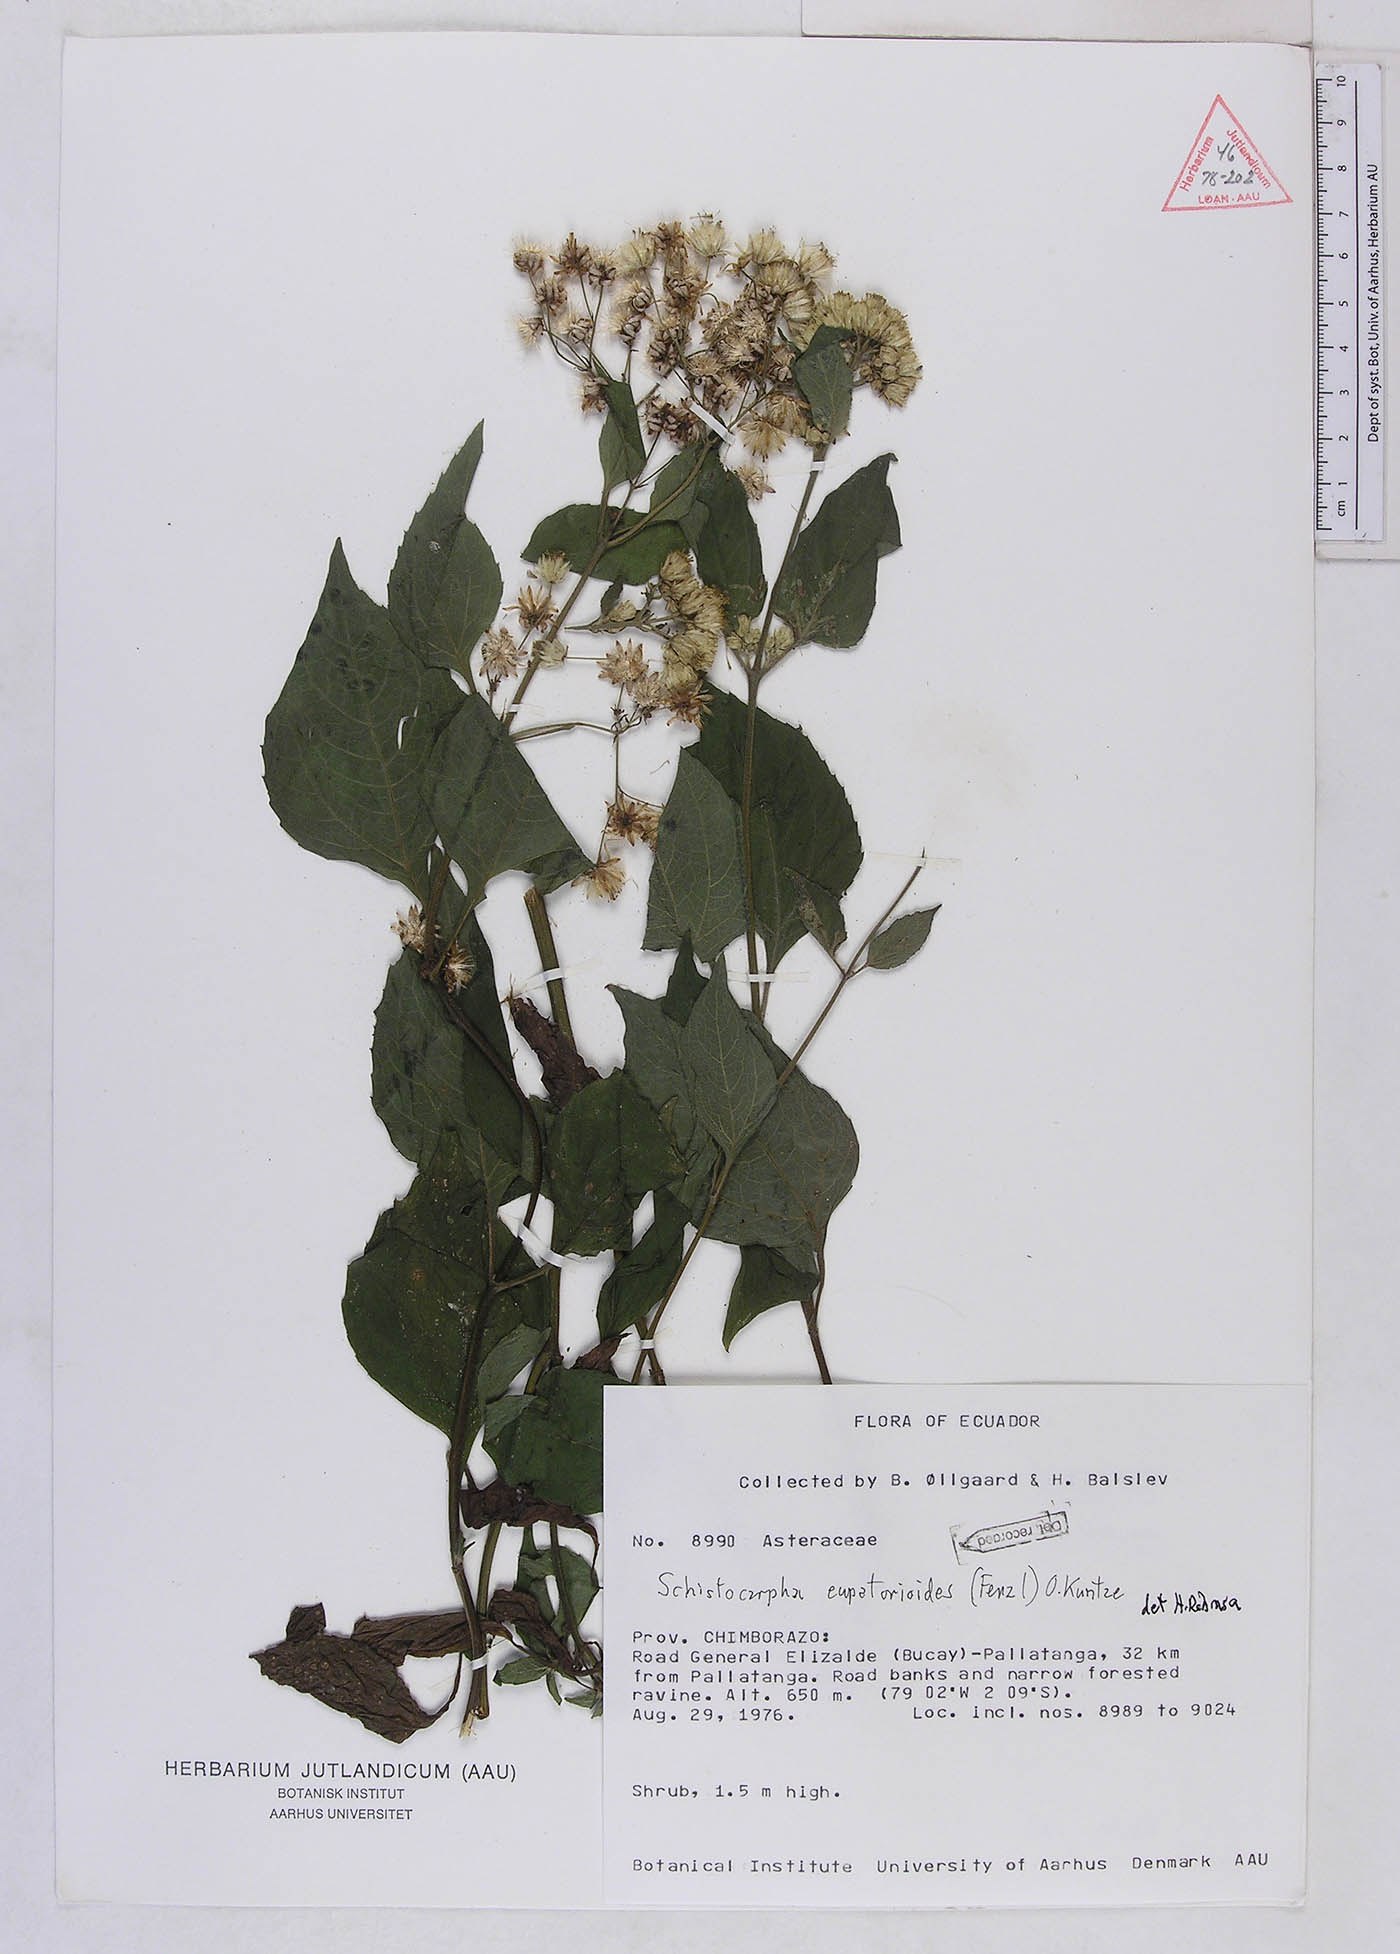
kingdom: Plantae
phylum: Tracheophyta
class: Magnoliopsida
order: Asterales
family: Asteraceae
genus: Schistocarpha
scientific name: Schistocarpha eupatorioides
